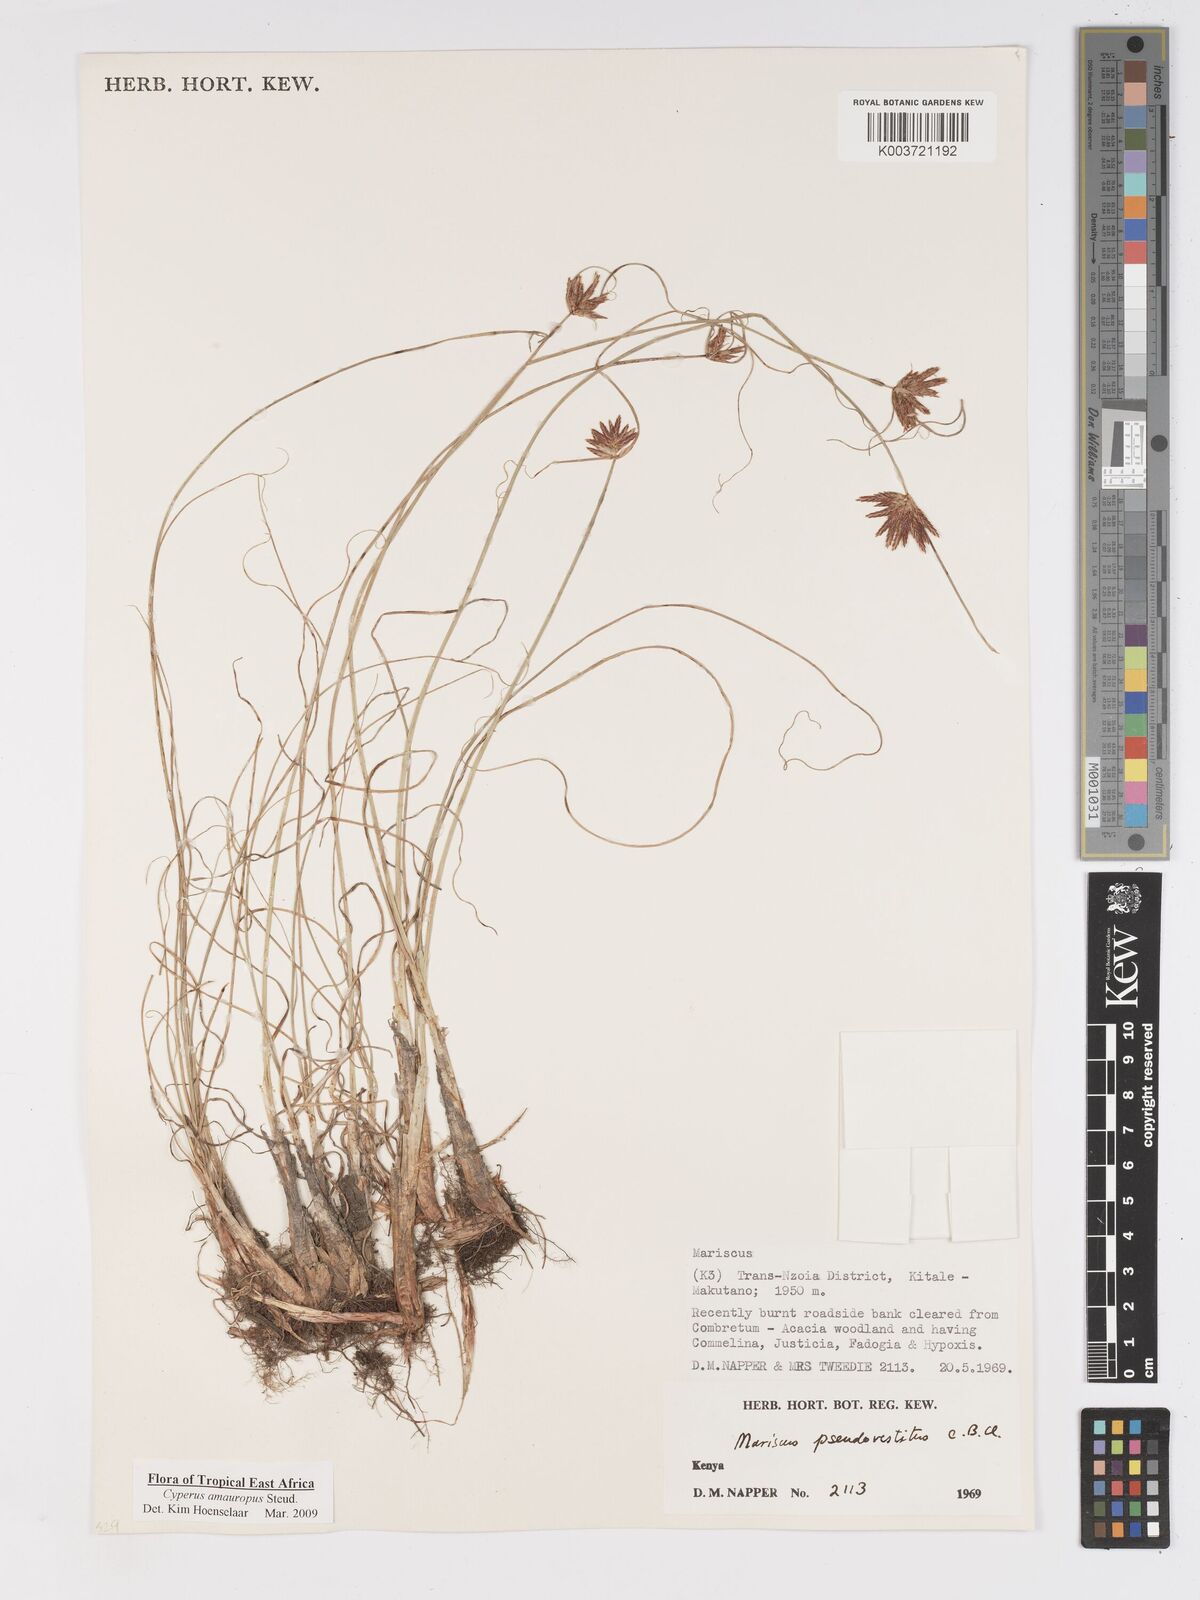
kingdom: Plantae
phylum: Tracheophyta
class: Liliopsida
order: Poales
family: Cyperaceae
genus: Cyperus
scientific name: Cyperus amauropus
